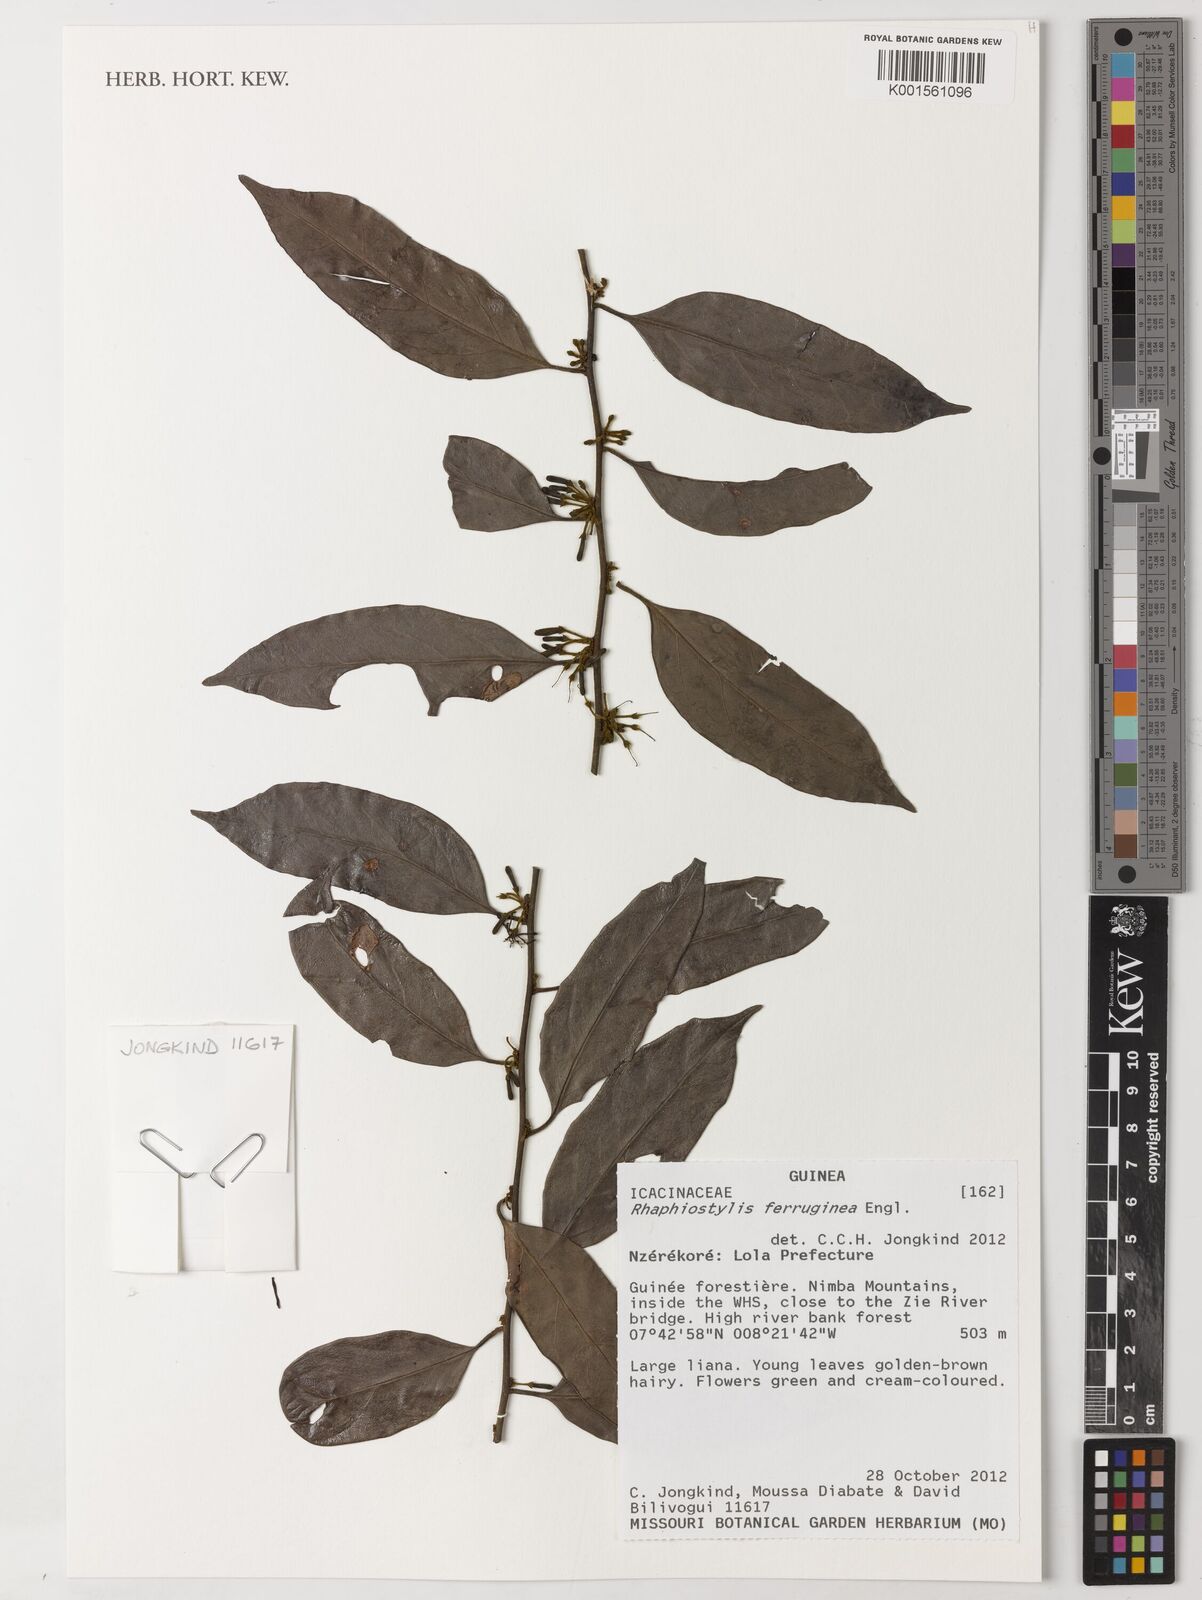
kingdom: Plantae
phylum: Tracheophyta
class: Magnoliopsida
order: Metteniusales
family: Metteniusaceae
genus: Rhaphiostylis
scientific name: Rhaphiostylis ferruginea
